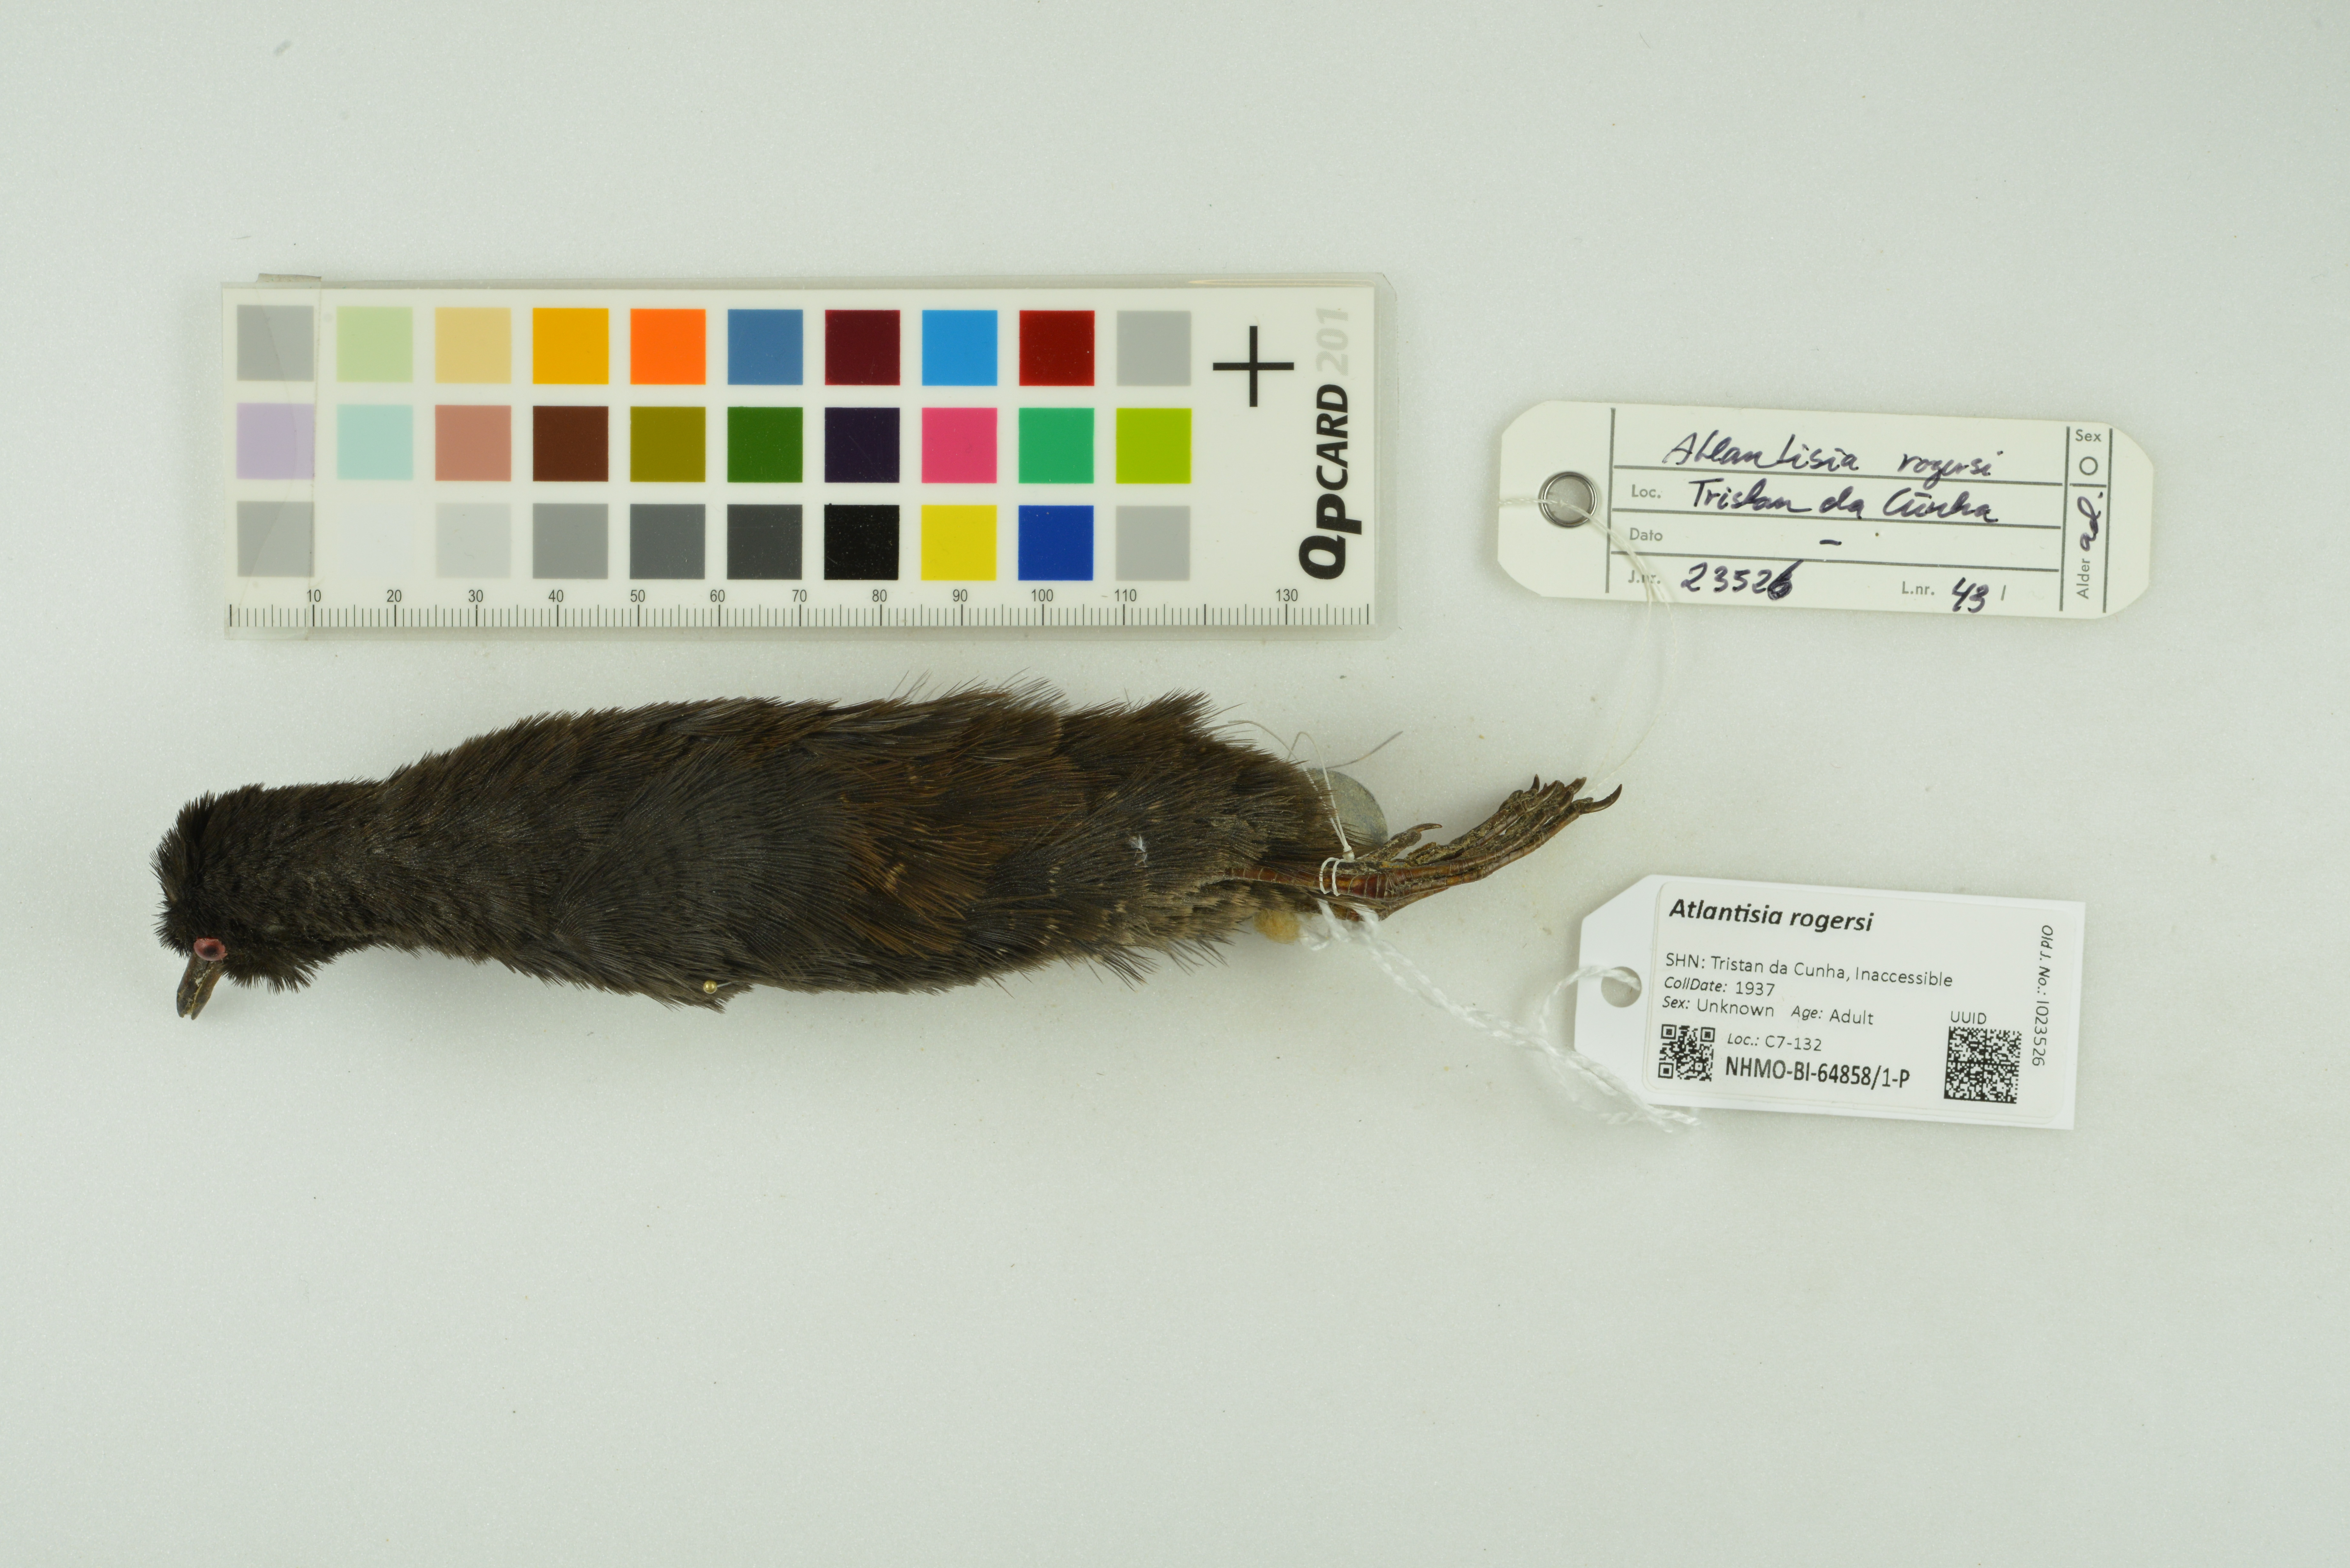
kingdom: Animalia
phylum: Chordata
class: Aves
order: Gruiformes
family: Rallidae
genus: Atlantisia
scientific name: Atlantisia rogersi
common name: Inaccessible island rail
